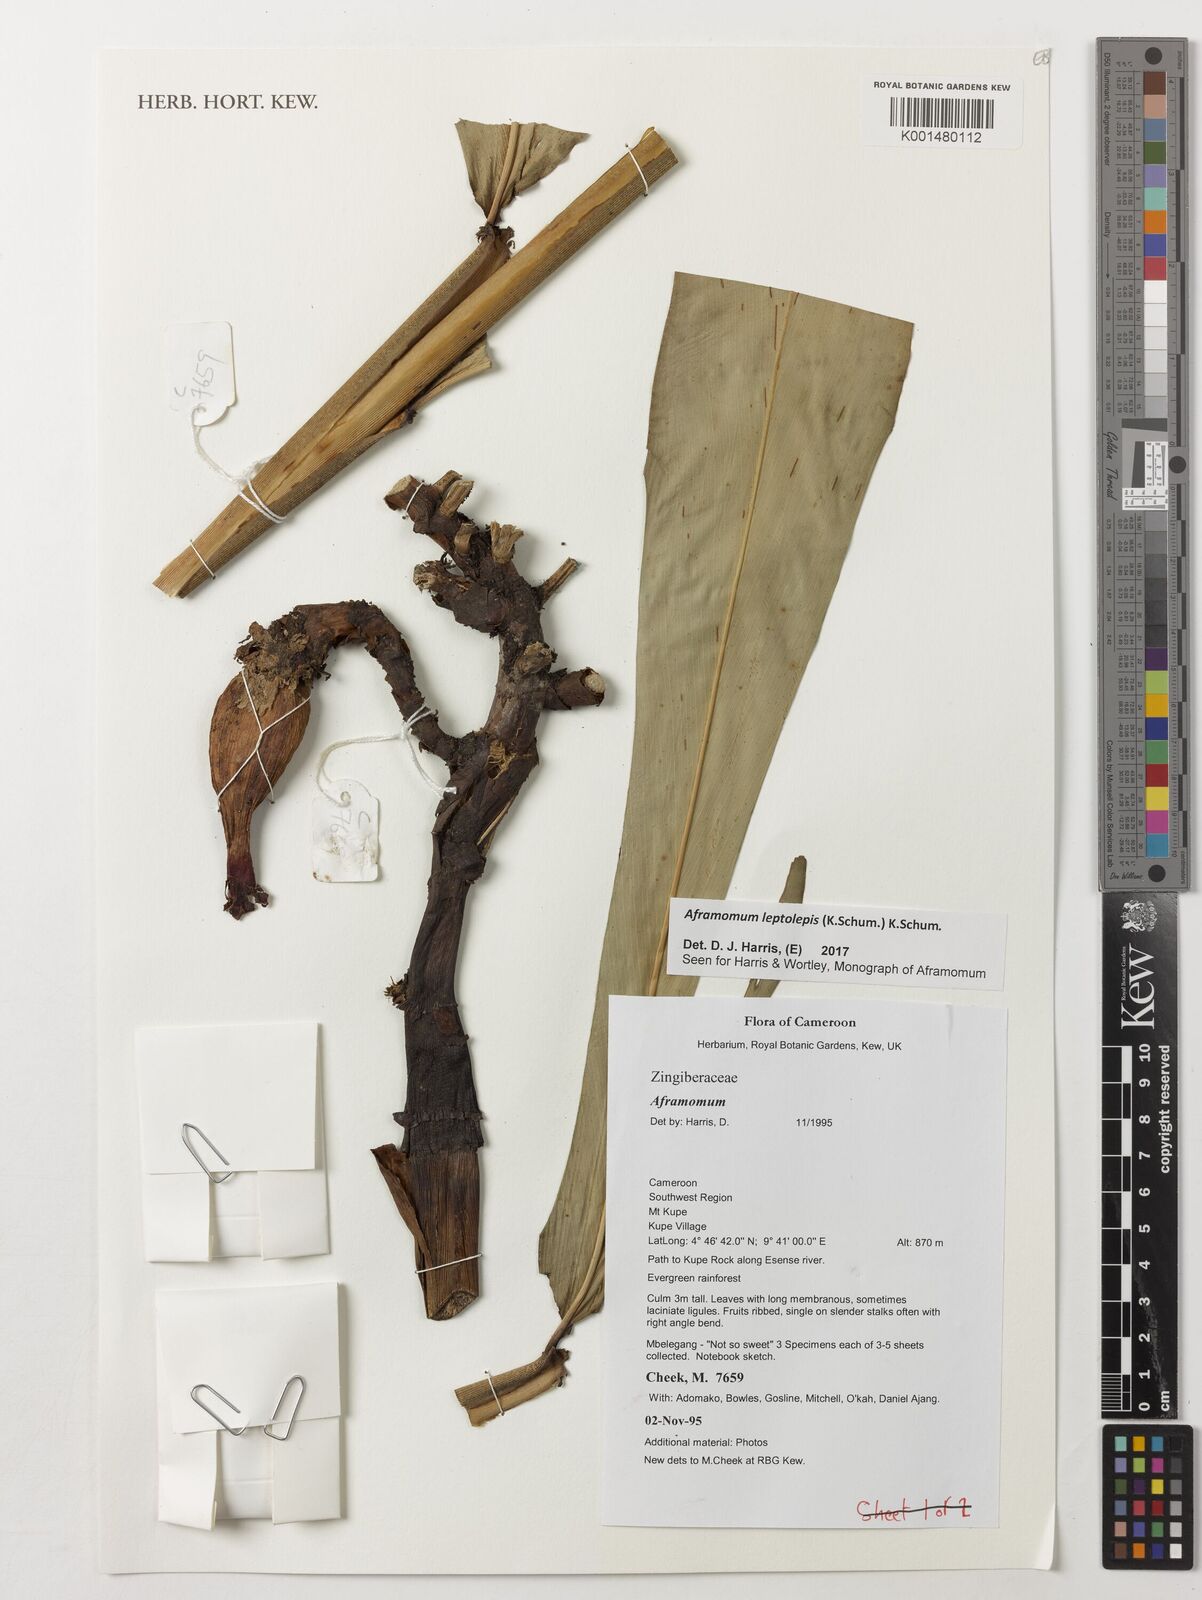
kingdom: Plantae
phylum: Tracheophyta
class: Liliopsida
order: Zingiberales
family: Zingiberaceae
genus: Aframomum
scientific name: Aframomum leptolepis
